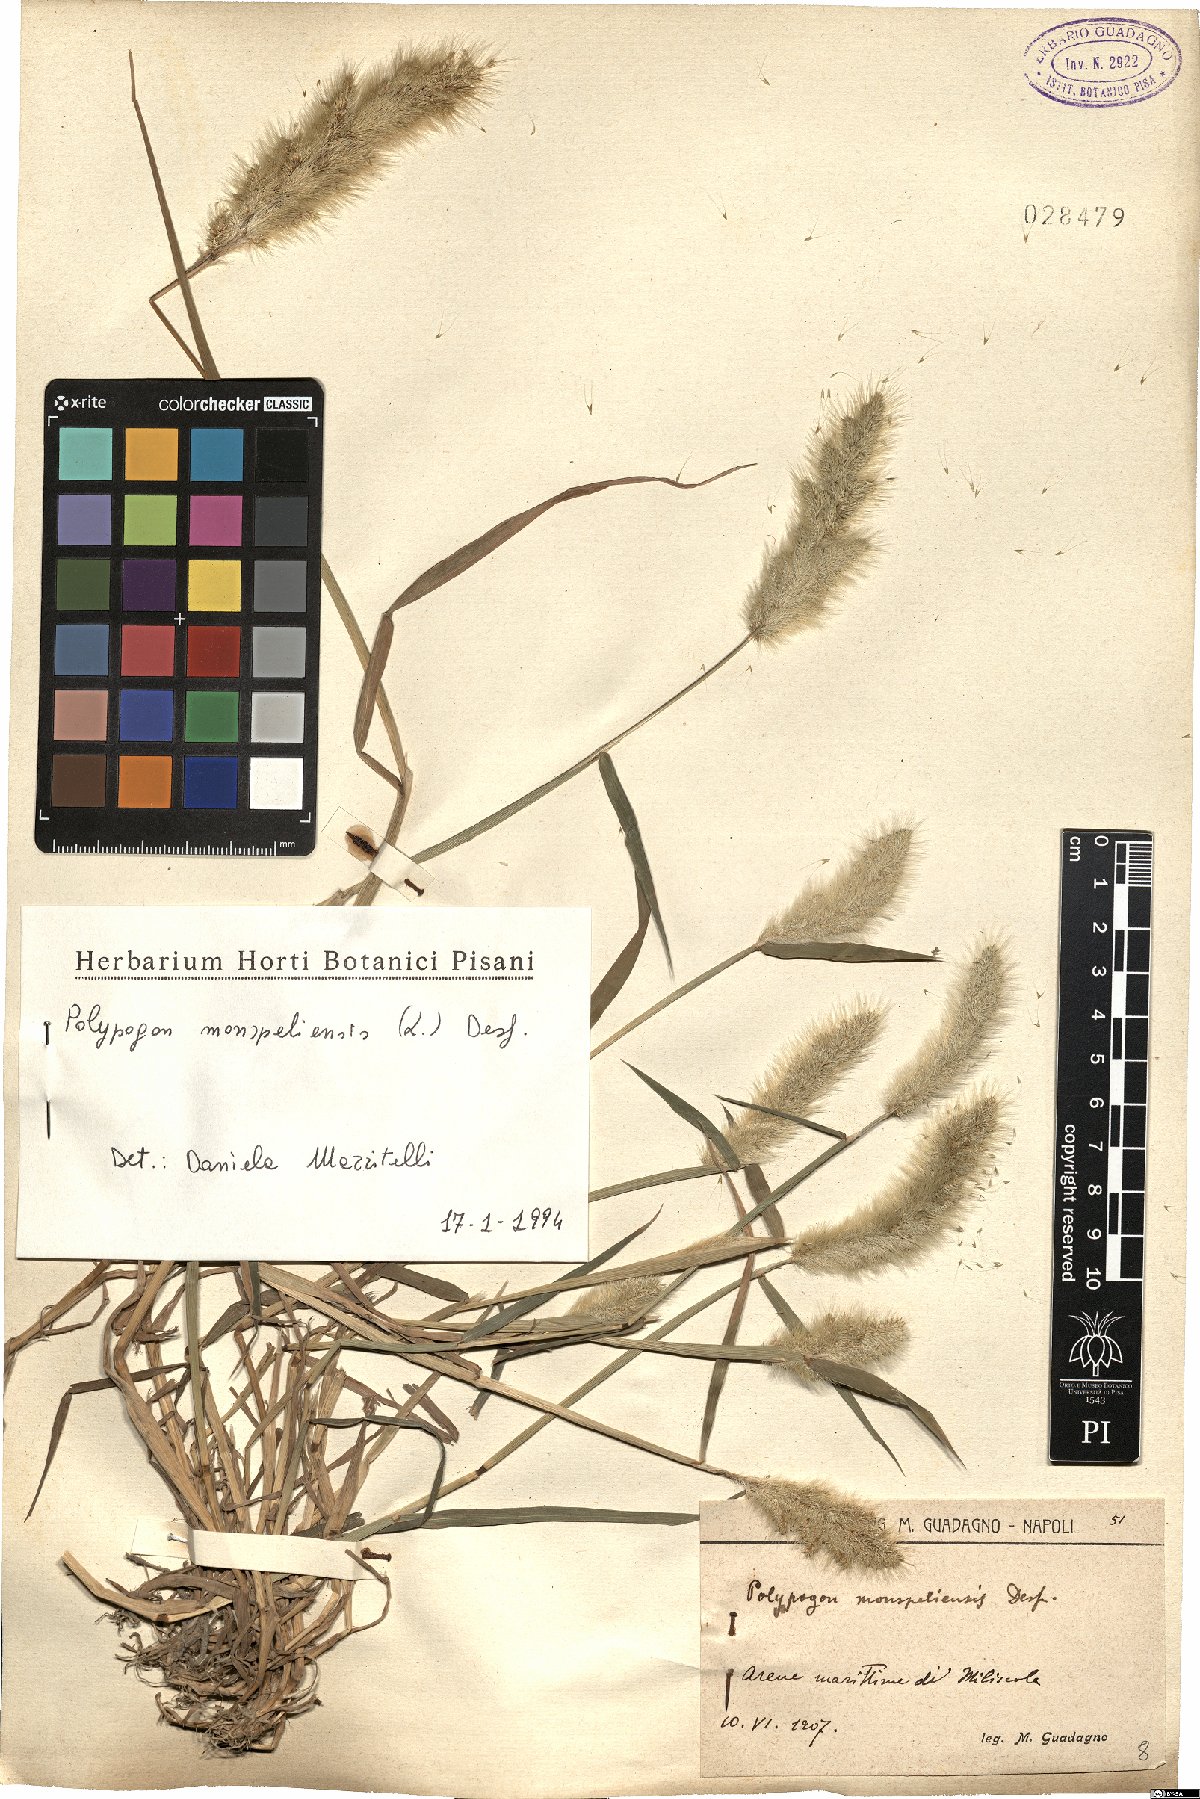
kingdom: Plantae
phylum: Tracheophyta
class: Liliopsida
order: Poales
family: Poaceae
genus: Polypogon
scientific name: Polypogon monspeliensis
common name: Annual rabbitsfoot grass
